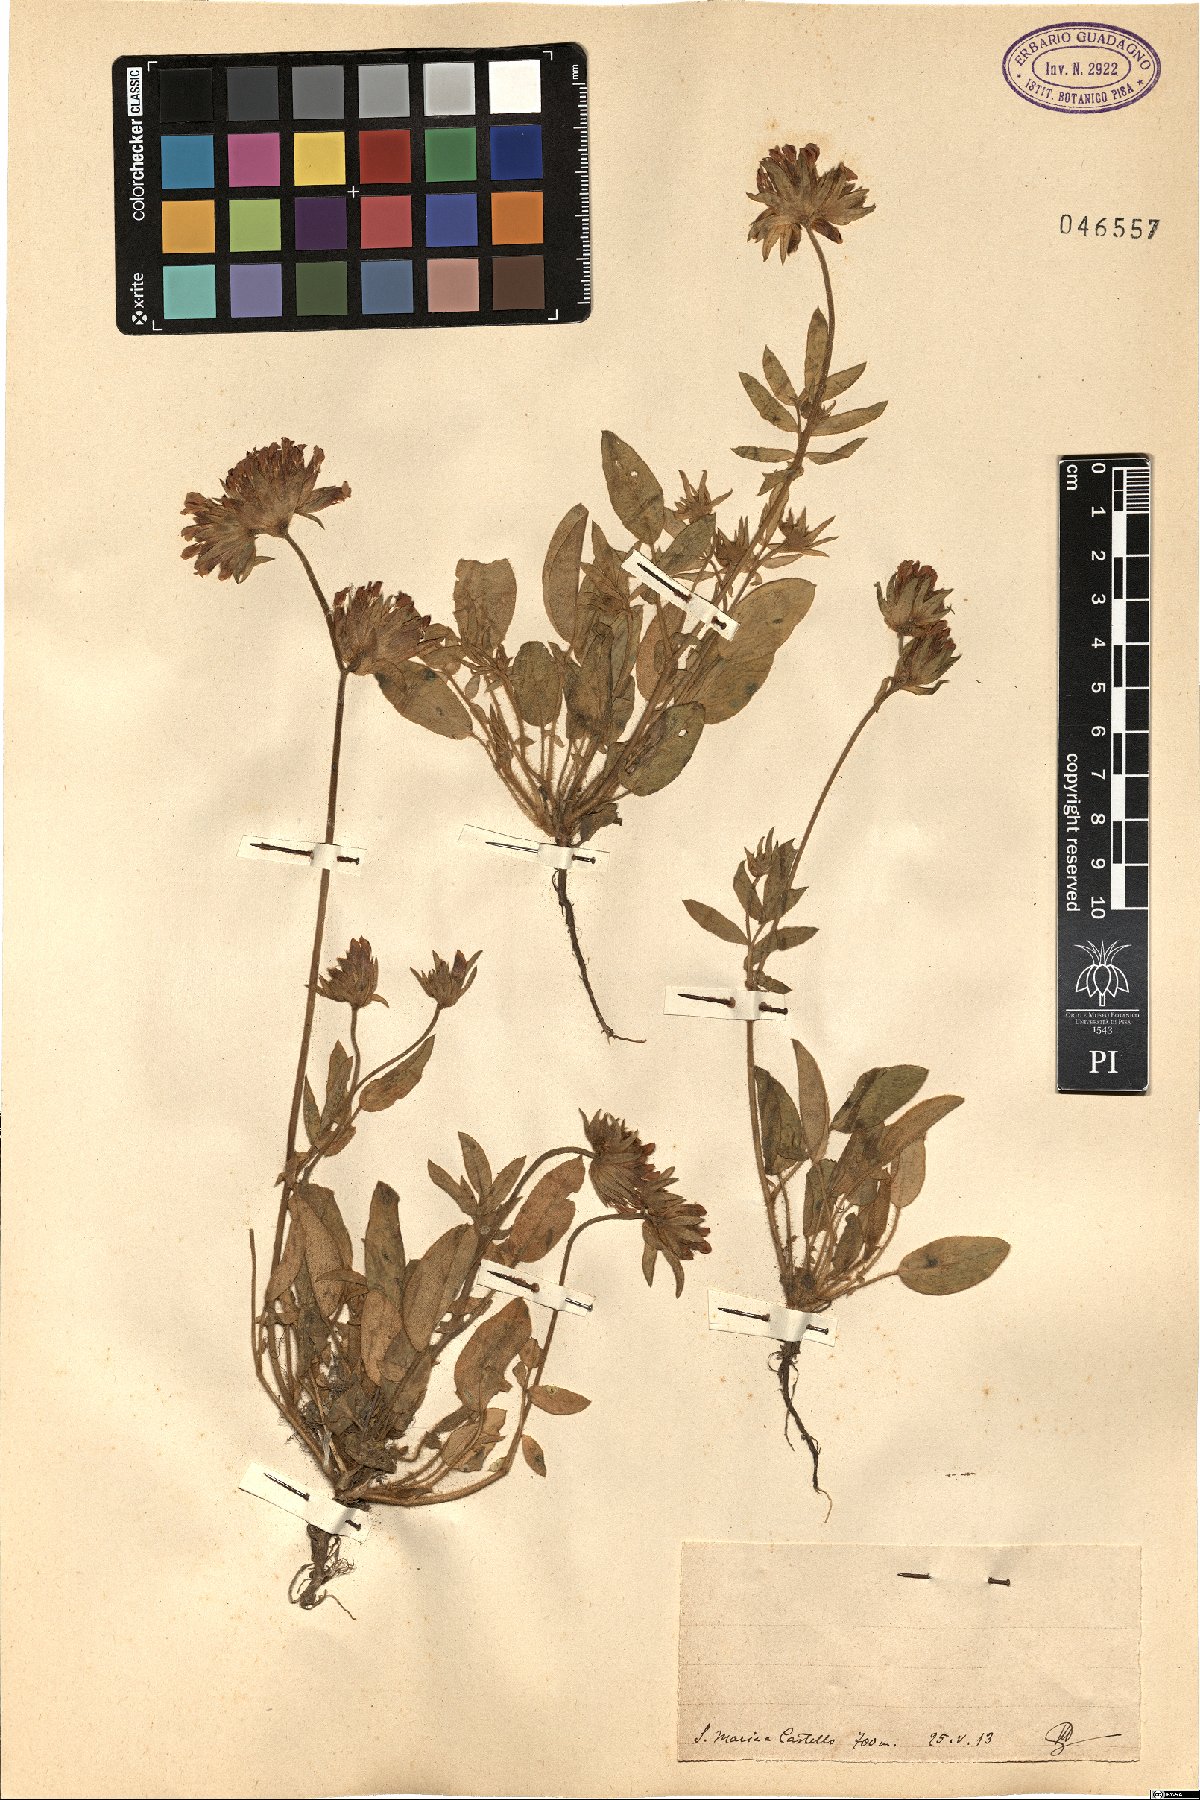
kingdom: Plantae
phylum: Tracheophyta
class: Magnoliopsida
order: Fabales
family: Fabaceae
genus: Anthyllis
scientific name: Anthyllis
